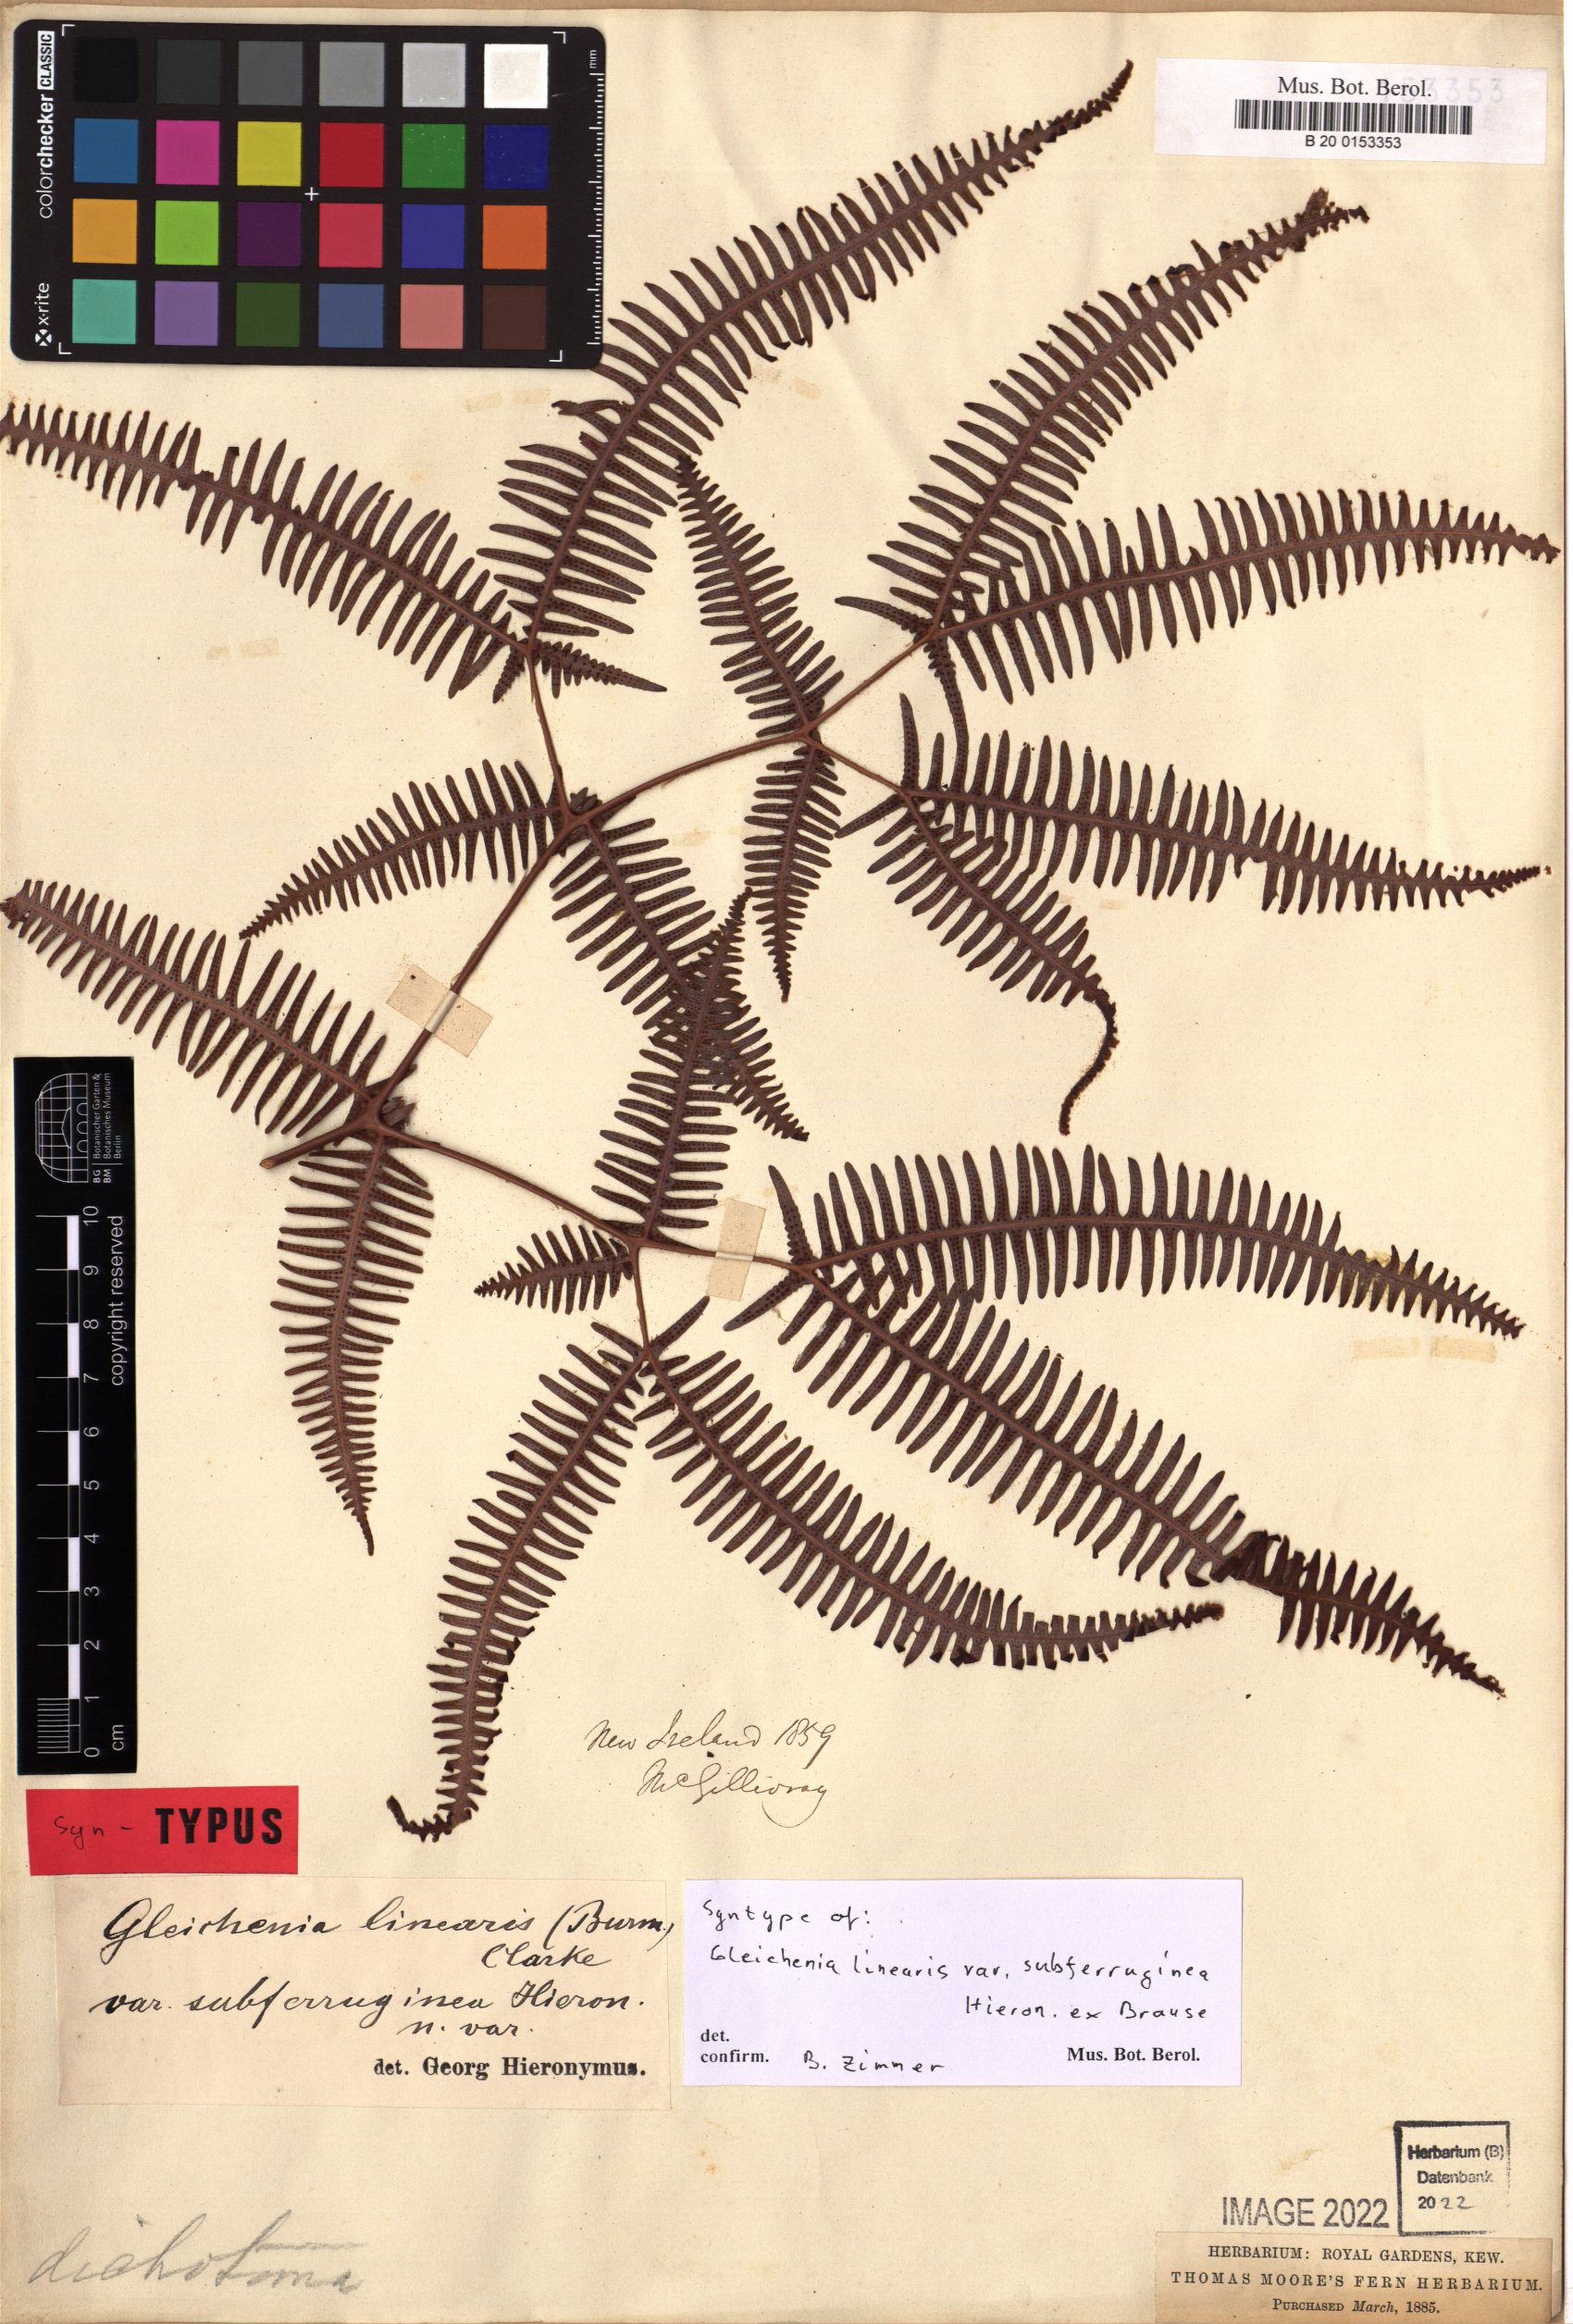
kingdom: Plantae
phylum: Tracheophyta
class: Polypodiopsida
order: Gleicheniales
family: Gleicheniaceae
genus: Dicranopteris
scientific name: Dicranopteris linearis
